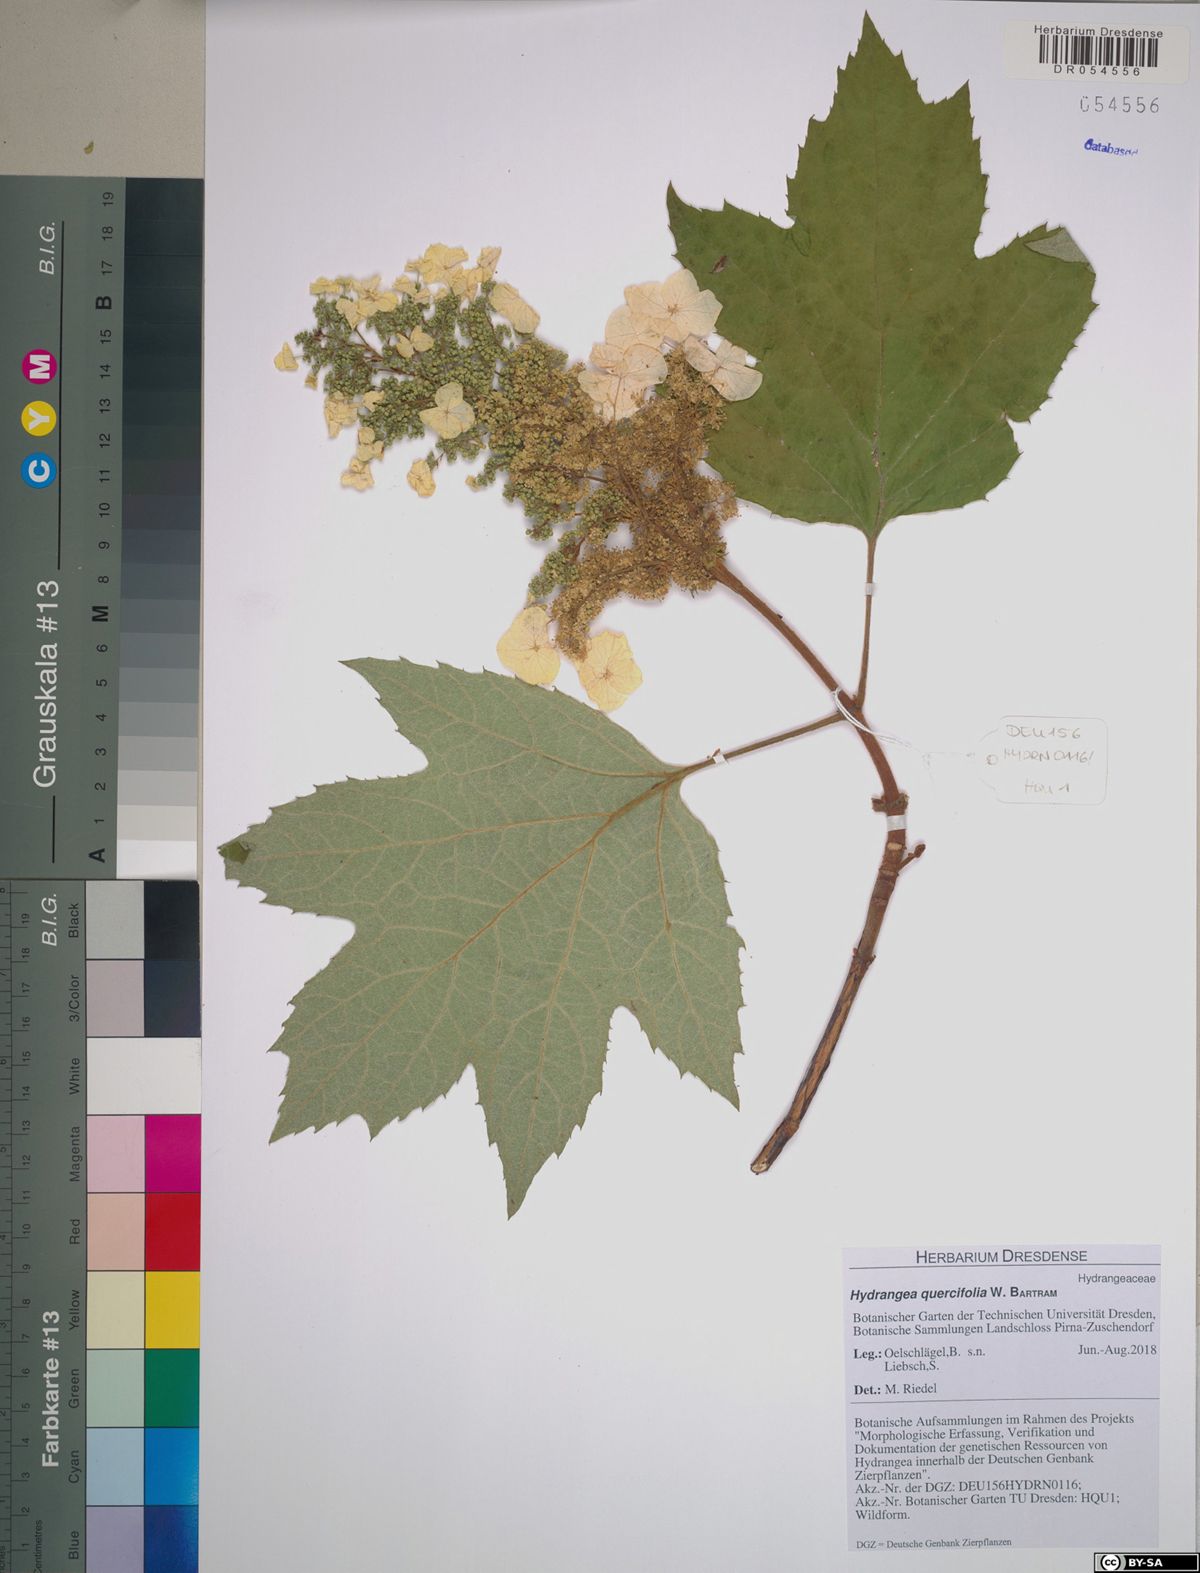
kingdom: Plantae
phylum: Tracheophyta
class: Magnoliopsida
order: Cornales
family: Hydrangeaceae
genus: Hydrangea
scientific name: Hydrangea quercifolia
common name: Oak-leaf hydrangea
